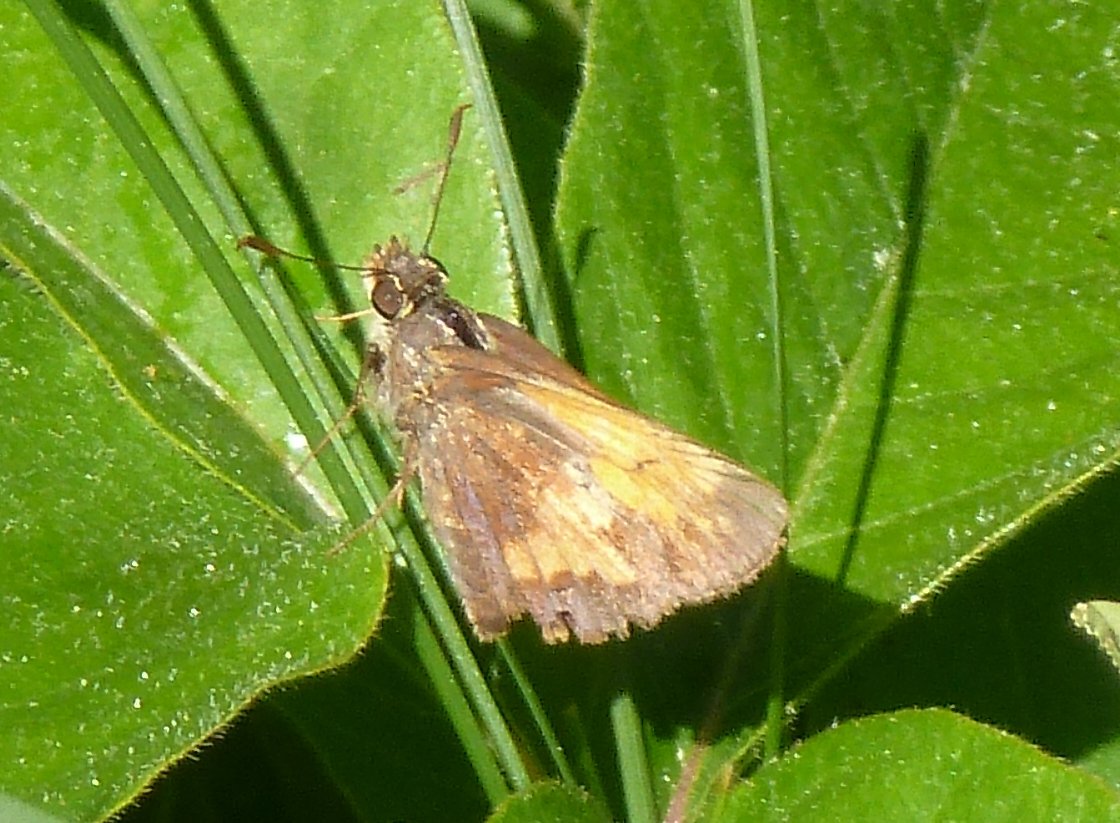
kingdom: Animalia
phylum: Arthropoda
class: Insecta
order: Lepidoptera
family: Hesperiidae
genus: Lon
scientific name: Lon hobomok
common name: Hobomok Skipper
